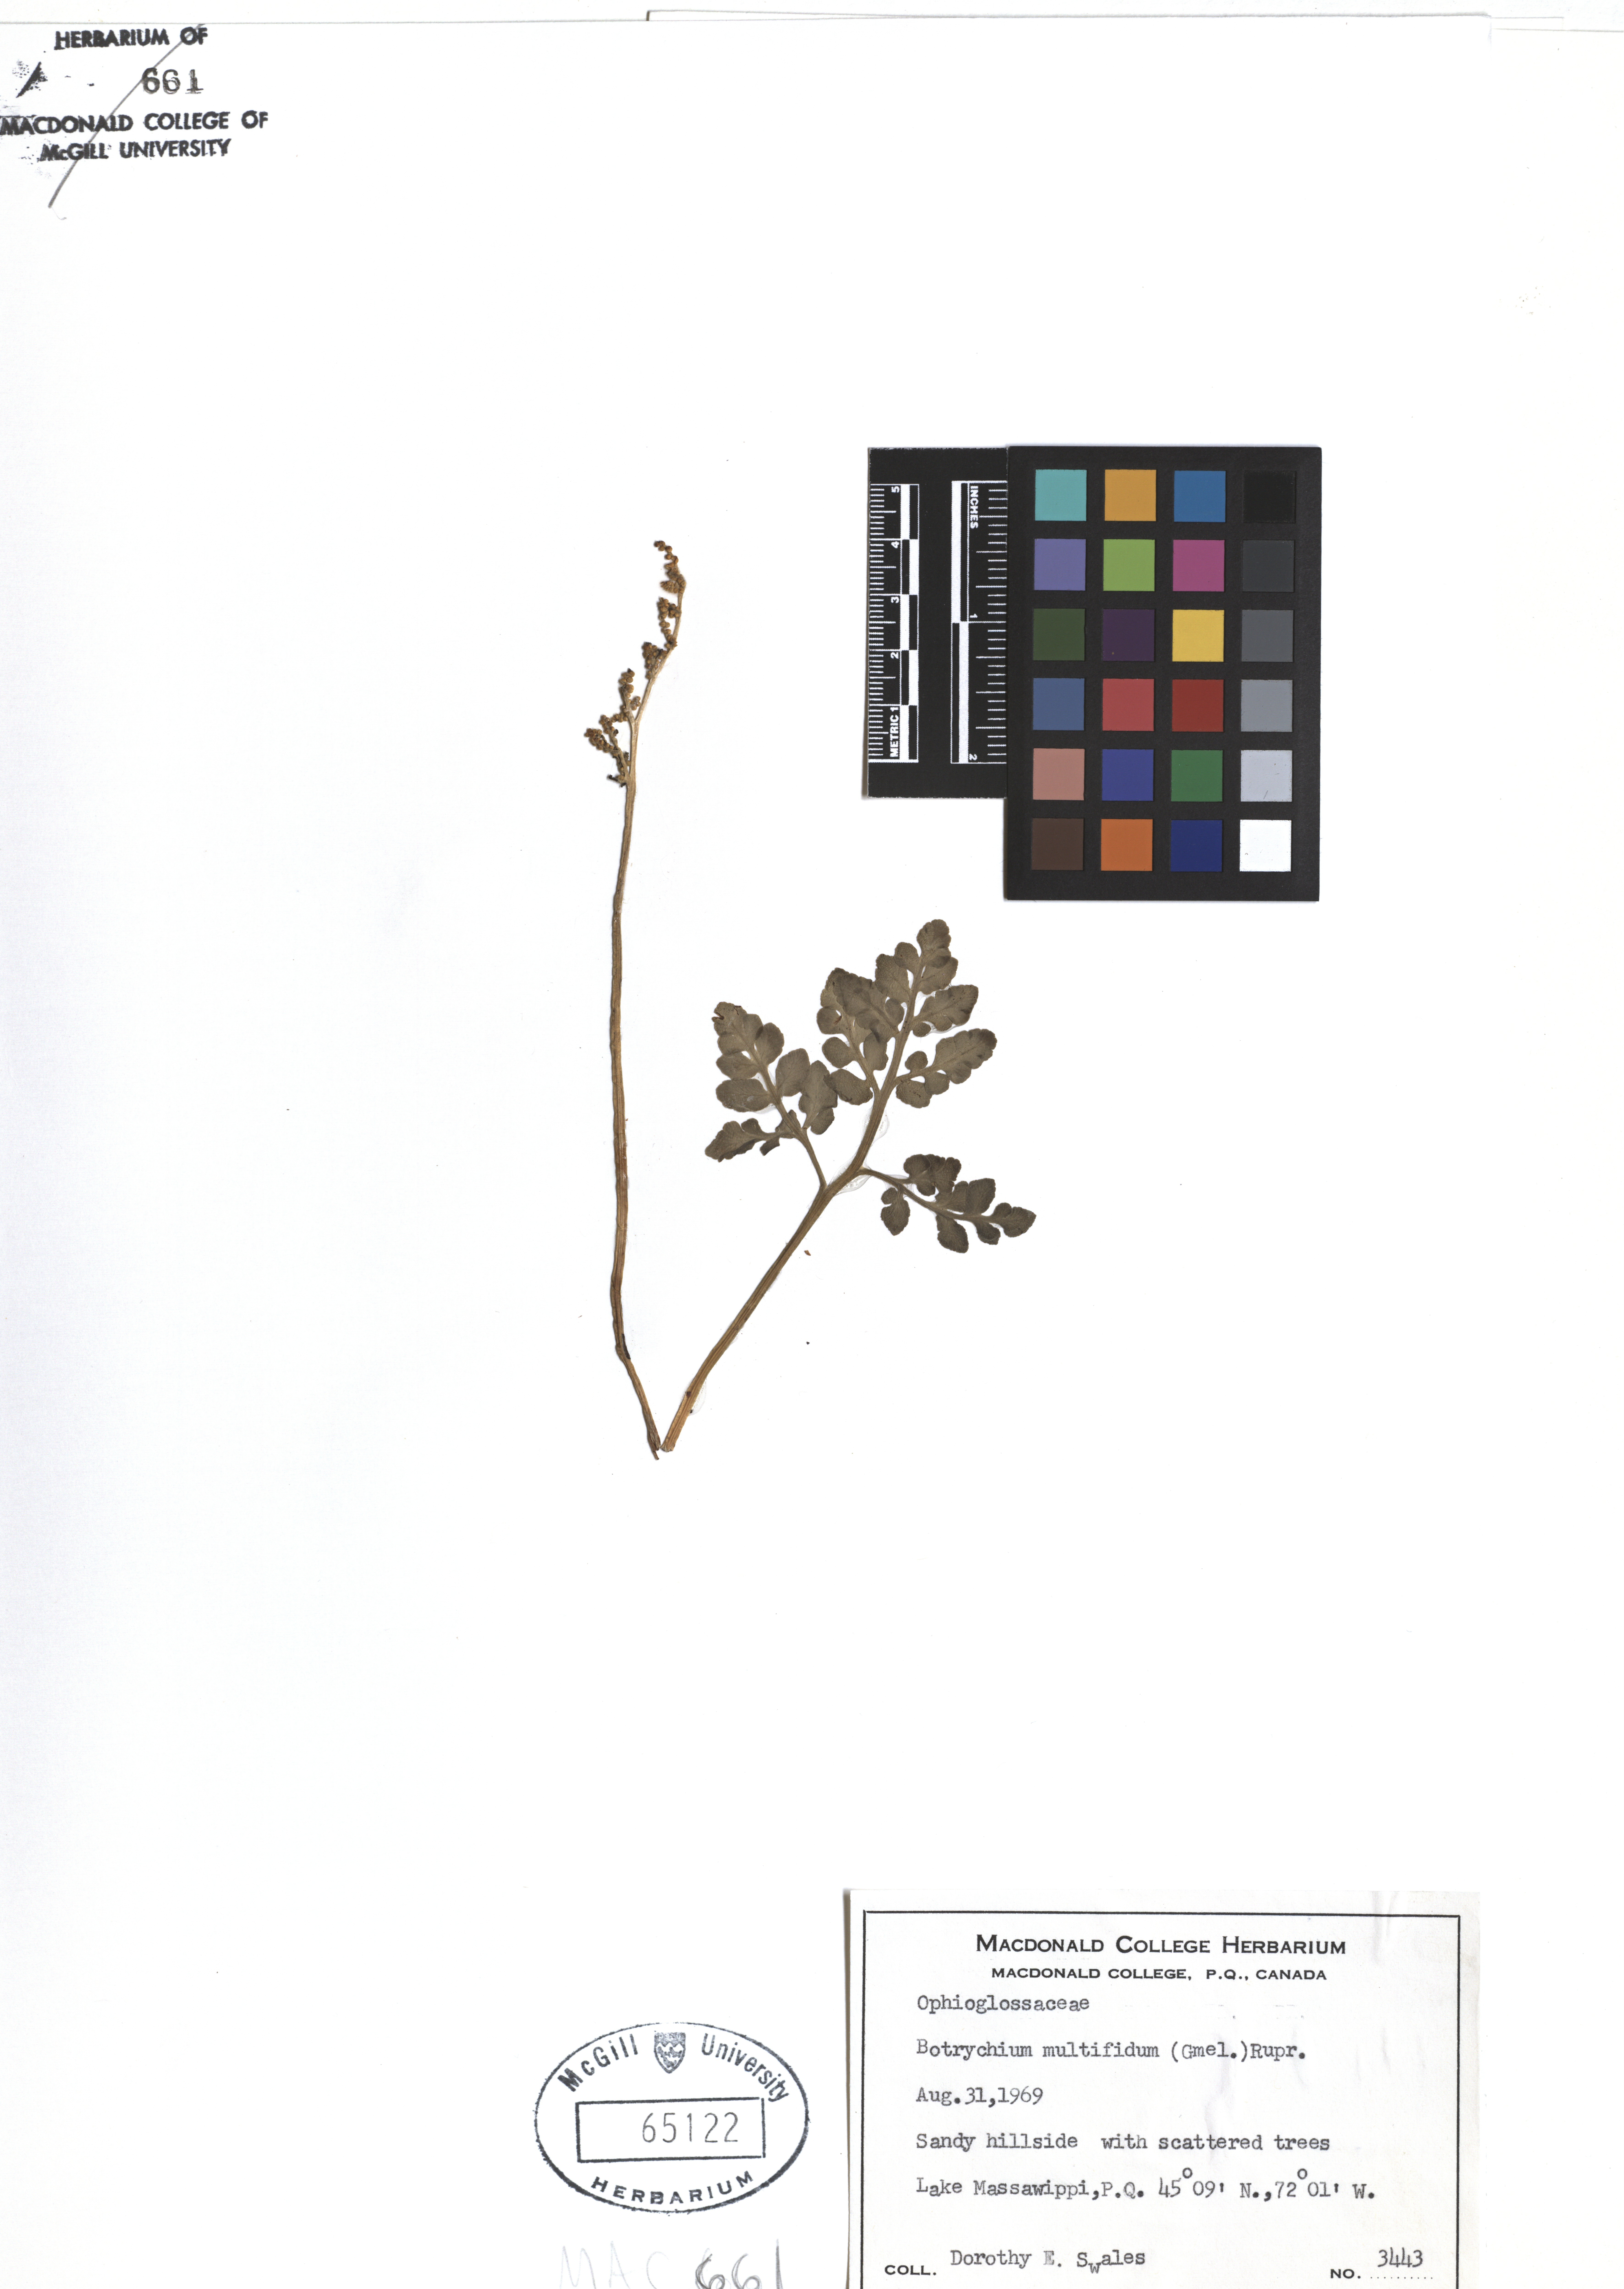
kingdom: Plantae
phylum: Tracheophyta
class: Polypodiopsida
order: Ophioglossales
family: Ophioglossaceae
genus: Sceptridium
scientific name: Sceptridium multifidum
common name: Leathery grape fern
